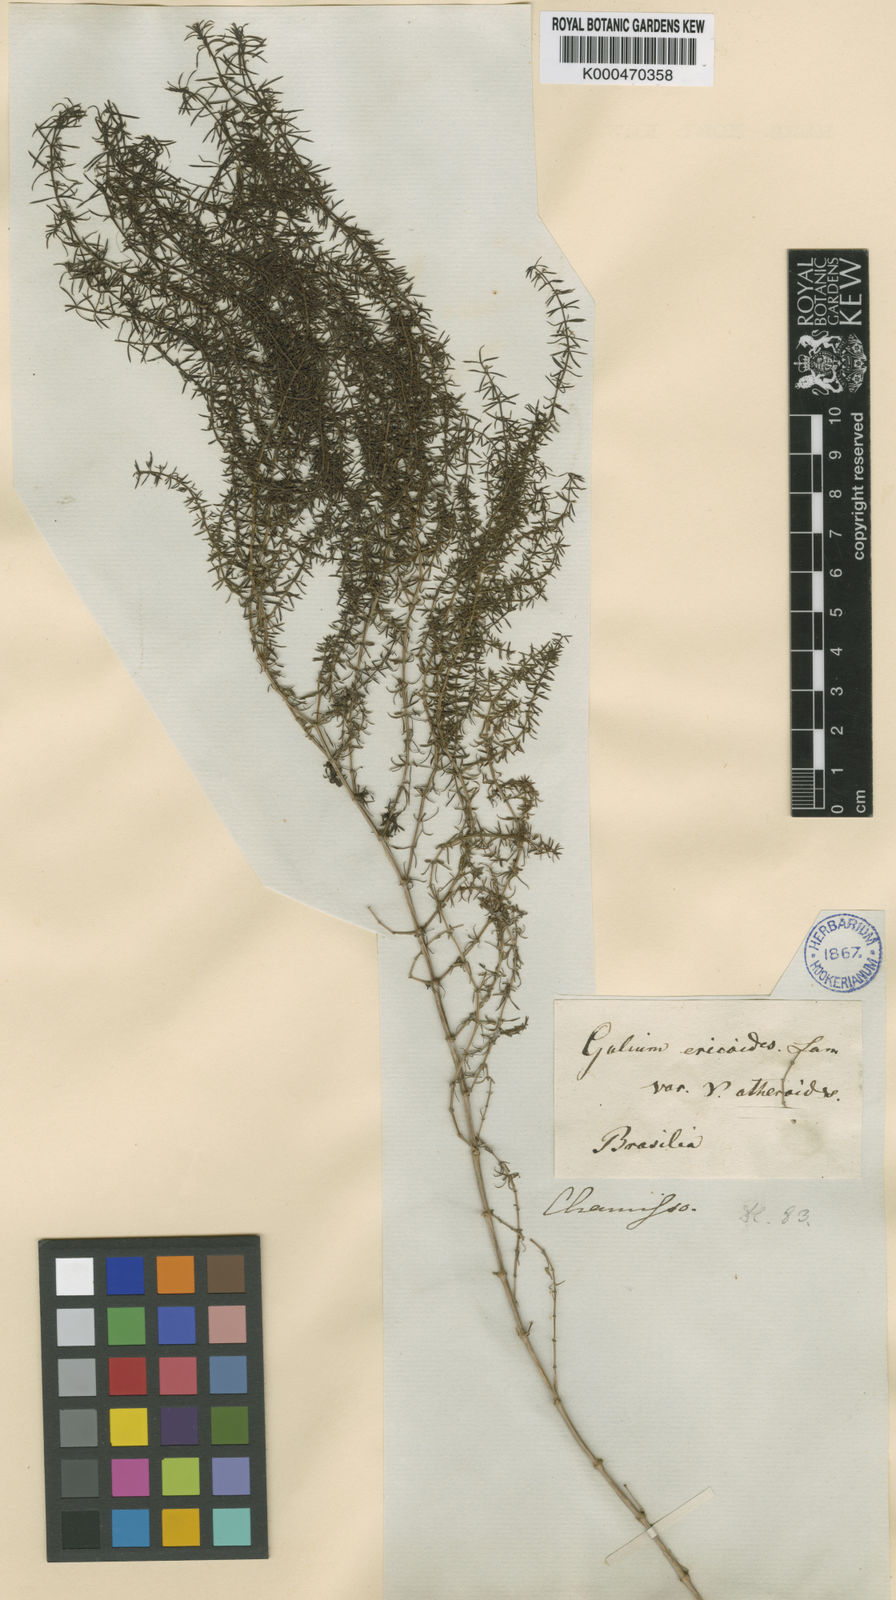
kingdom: Plantae
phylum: Tracheophyta
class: Magnoliopsida
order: Gentianales
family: Rubiaceae
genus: Galium
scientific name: Galium atherodes
